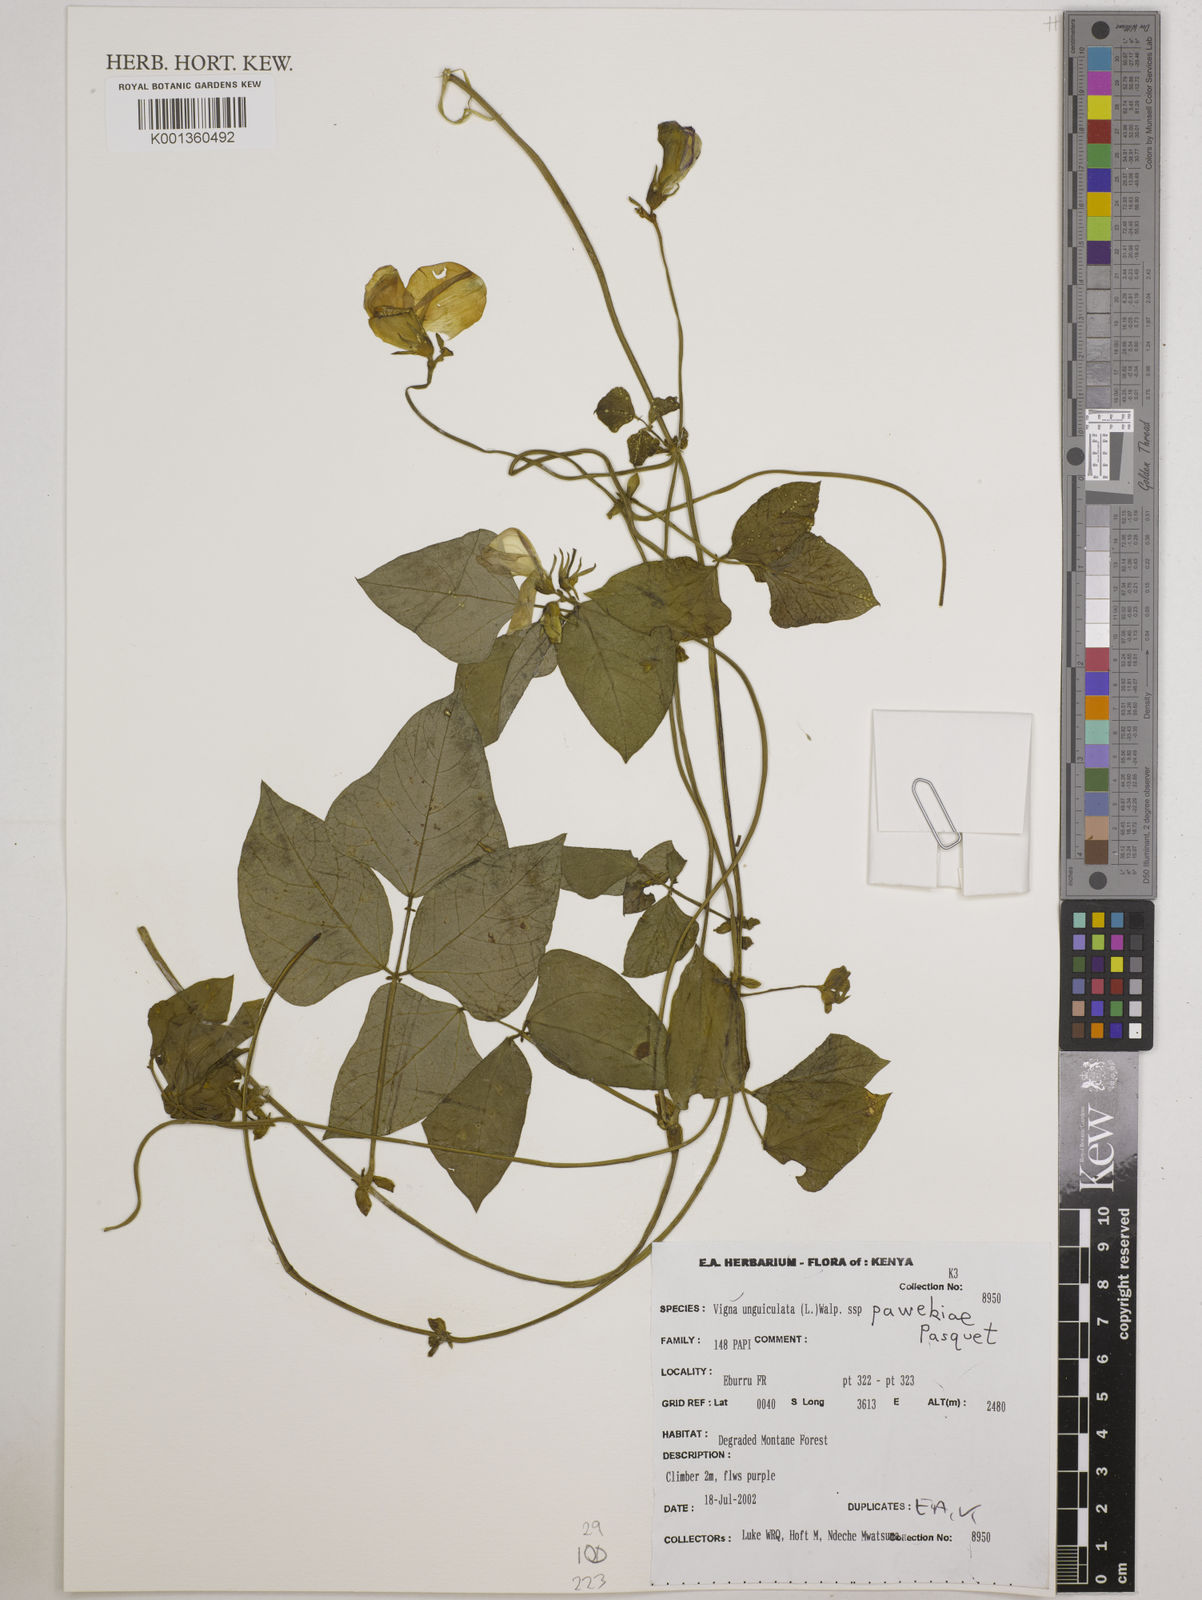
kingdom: Plantae
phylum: Tracheophyta
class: Magnoliopsida
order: Fabales
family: Fabaceae
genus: Vigna
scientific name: Vigna unguiculata
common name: Cowpea
